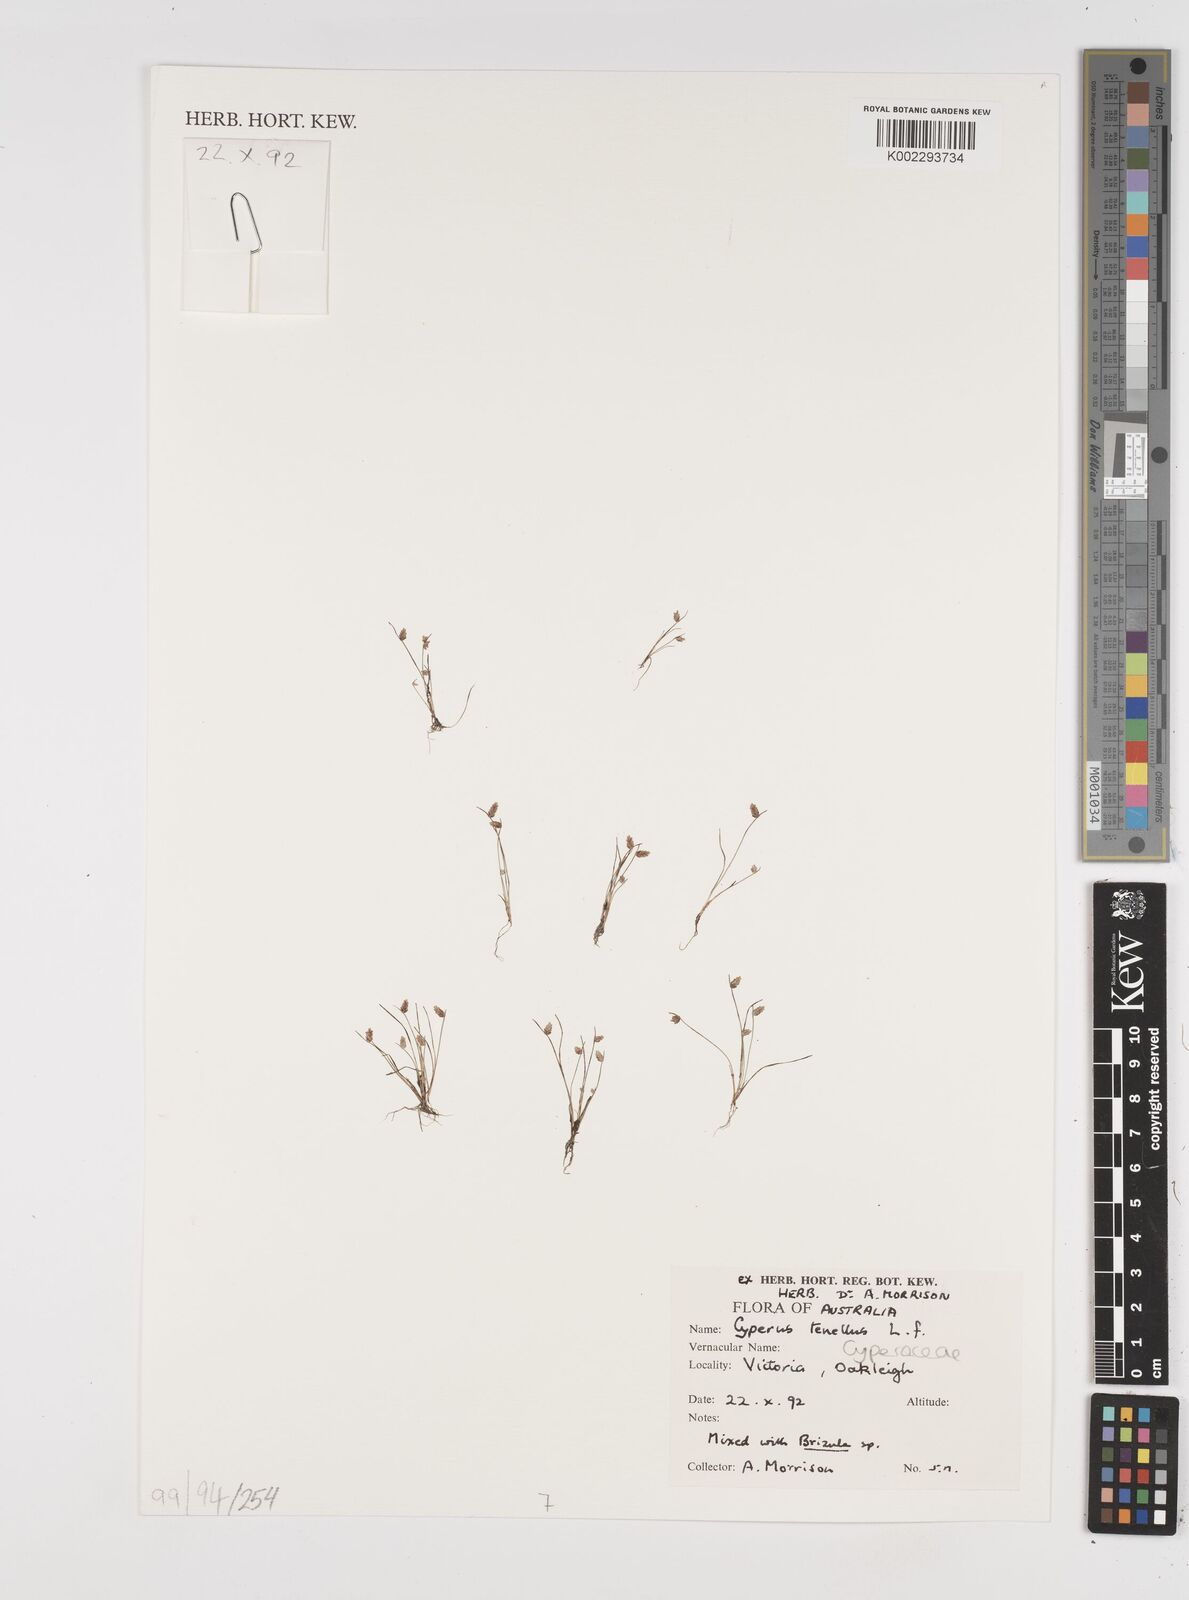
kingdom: Plantae
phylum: Tracheophyta
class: Liliopsida
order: Poales
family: Cyperaceae
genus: Isolepis
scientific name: Isolepis levynsiana
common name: Sedge
